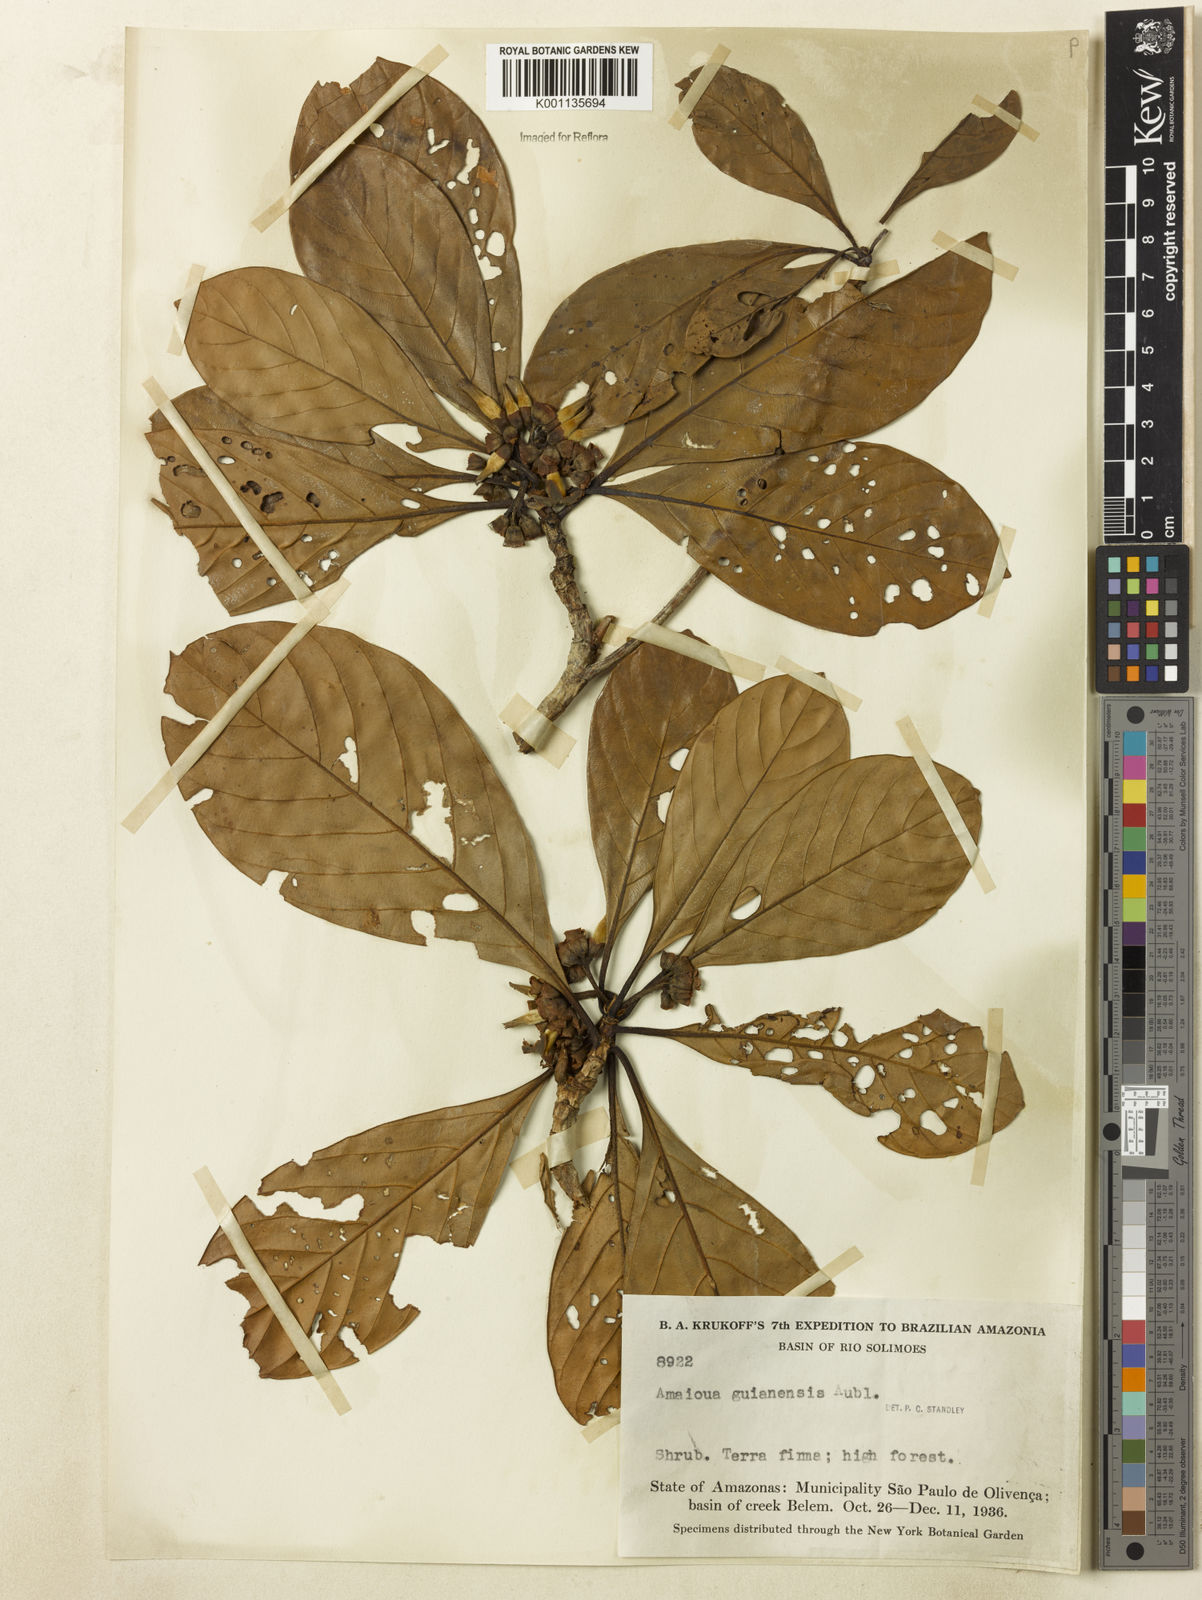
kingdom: Plantae
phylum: Tracheophyta
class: Magnoliopsida
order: Gentianales
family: Rubiaceae
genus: Amaioua
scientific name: Amaioua guianensis
